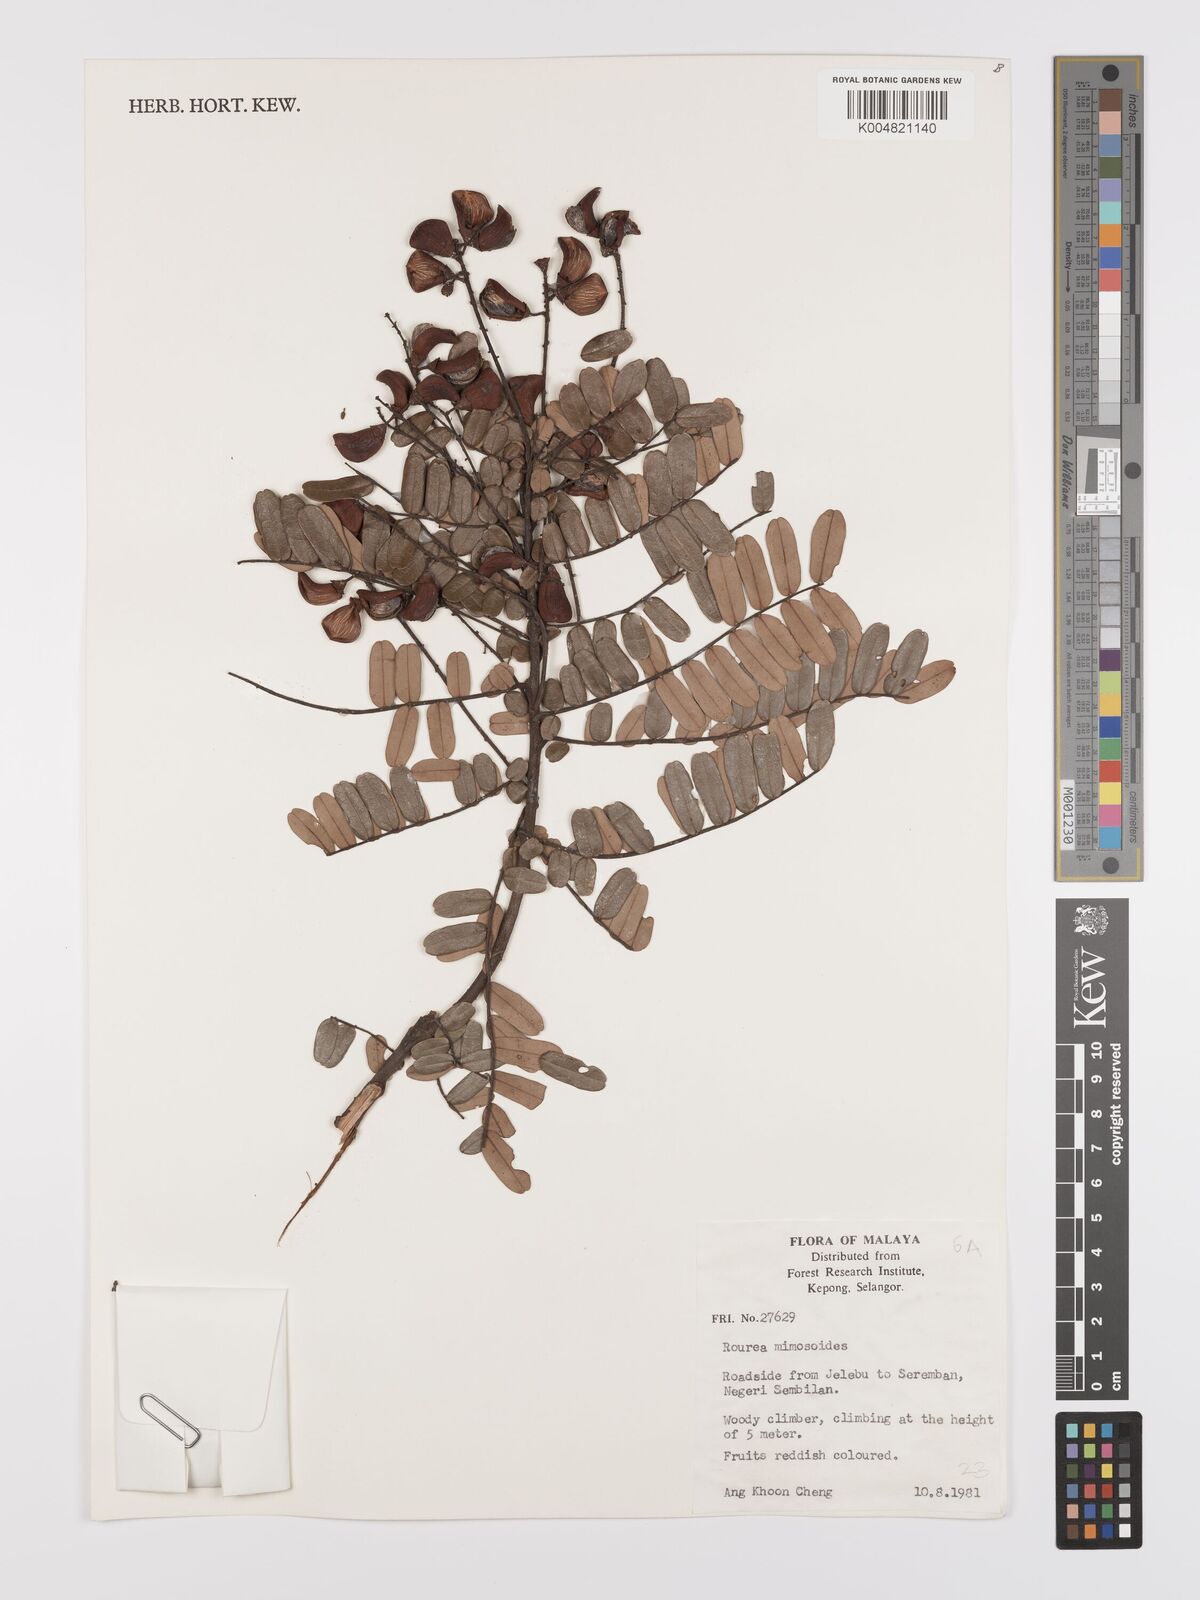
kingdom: Plantae
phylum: Tracheophyta
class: Magnoliopsida
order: Oxalidales
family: Connaraceae
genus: Rourea
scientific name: Rourea mimosoides
